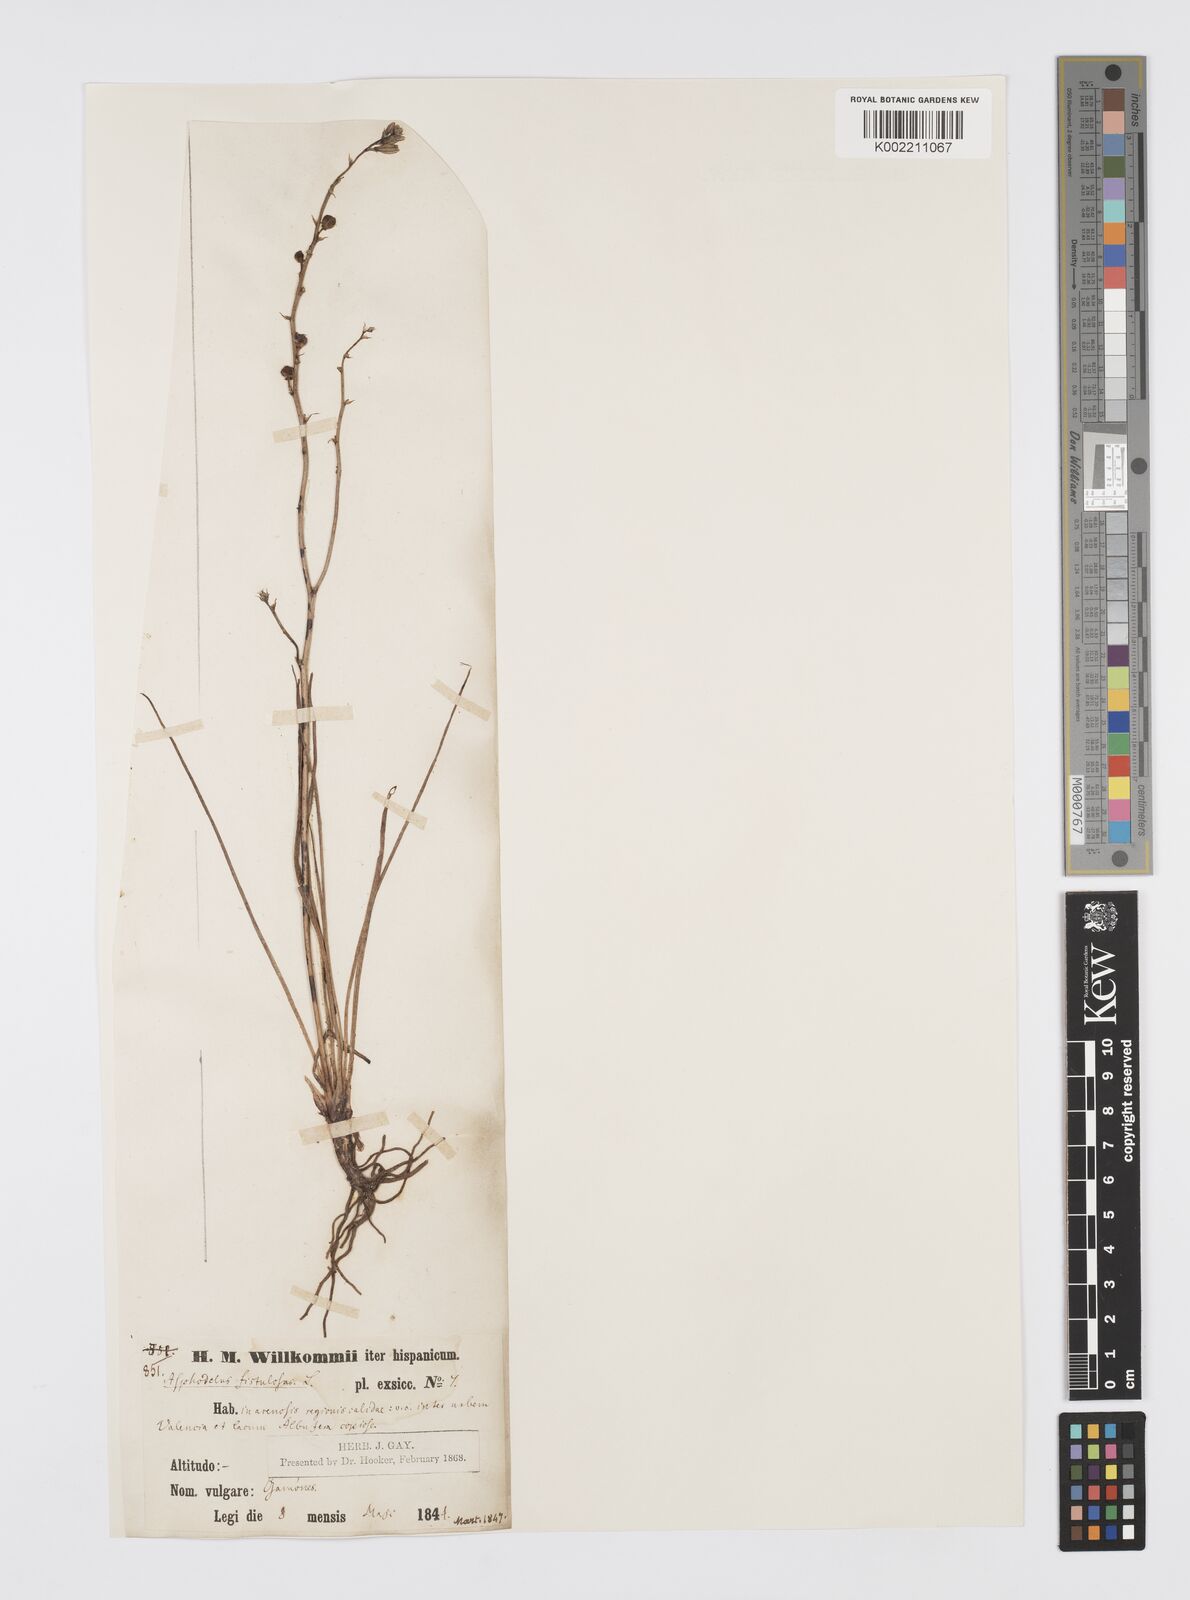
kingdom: Plantae
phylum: Tracheophyta
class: Liliopsida
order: Asparagales
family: Asphodelaceae
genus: Asphodelus
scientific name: Asphodelus tenuifolius
